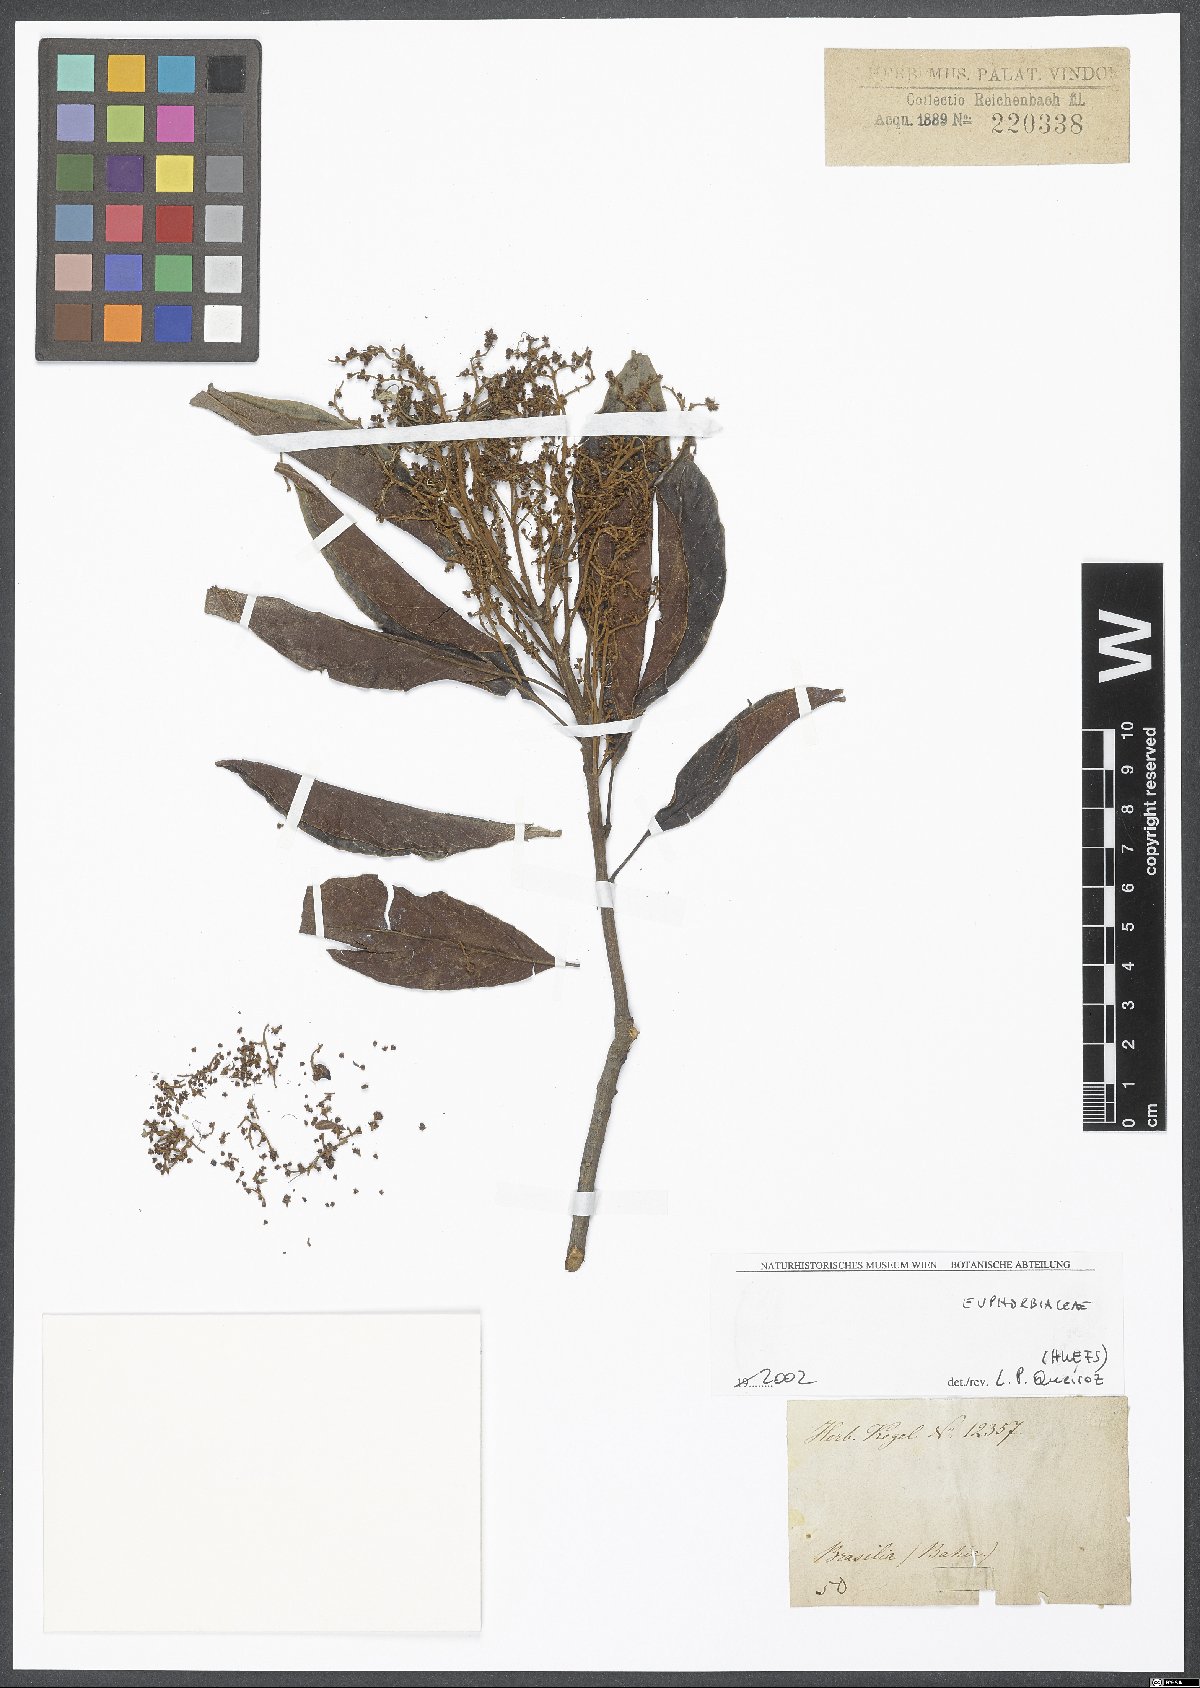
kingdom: Plantae
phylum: Tracheophyta
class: Magnoliopsida
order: Malpighiales
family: Euphorbiaceae
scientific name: Euphorbiaceae
